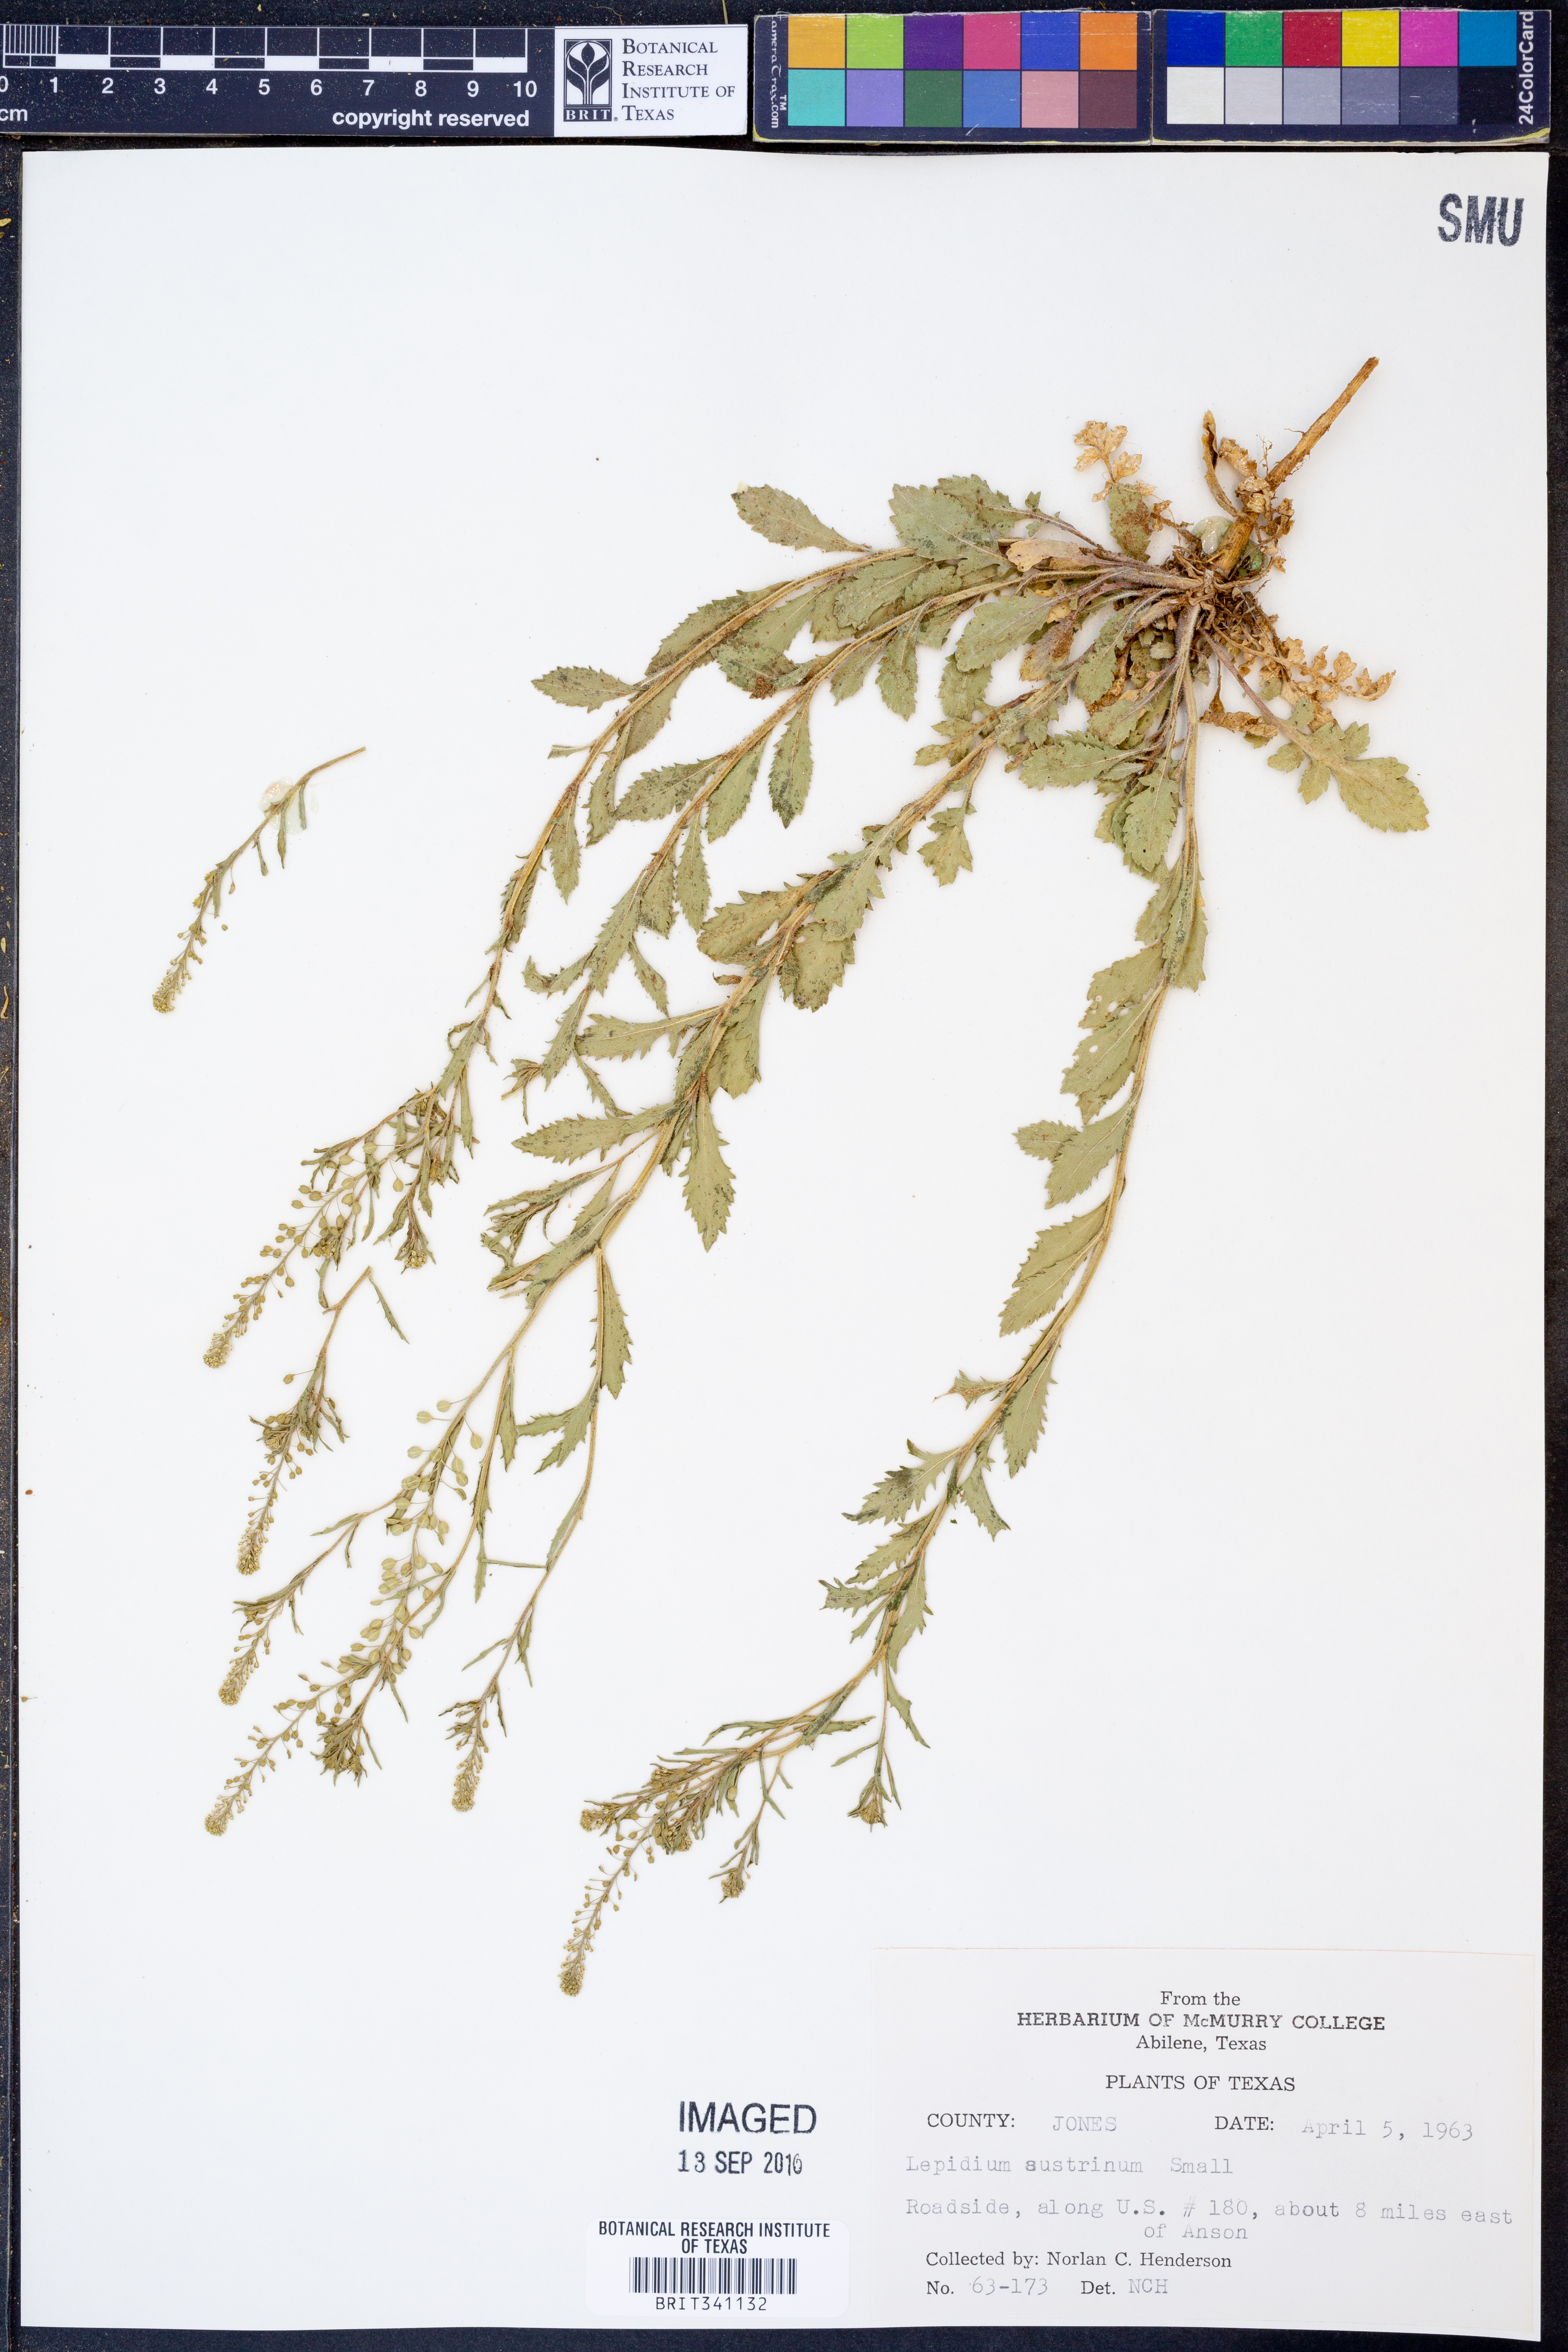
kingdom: Plantae
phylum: Tracheophyta
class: Magnoliopsida
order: Brassicales
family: Brassicaceae
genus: Lepidium
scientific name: Lepidium austrinum
